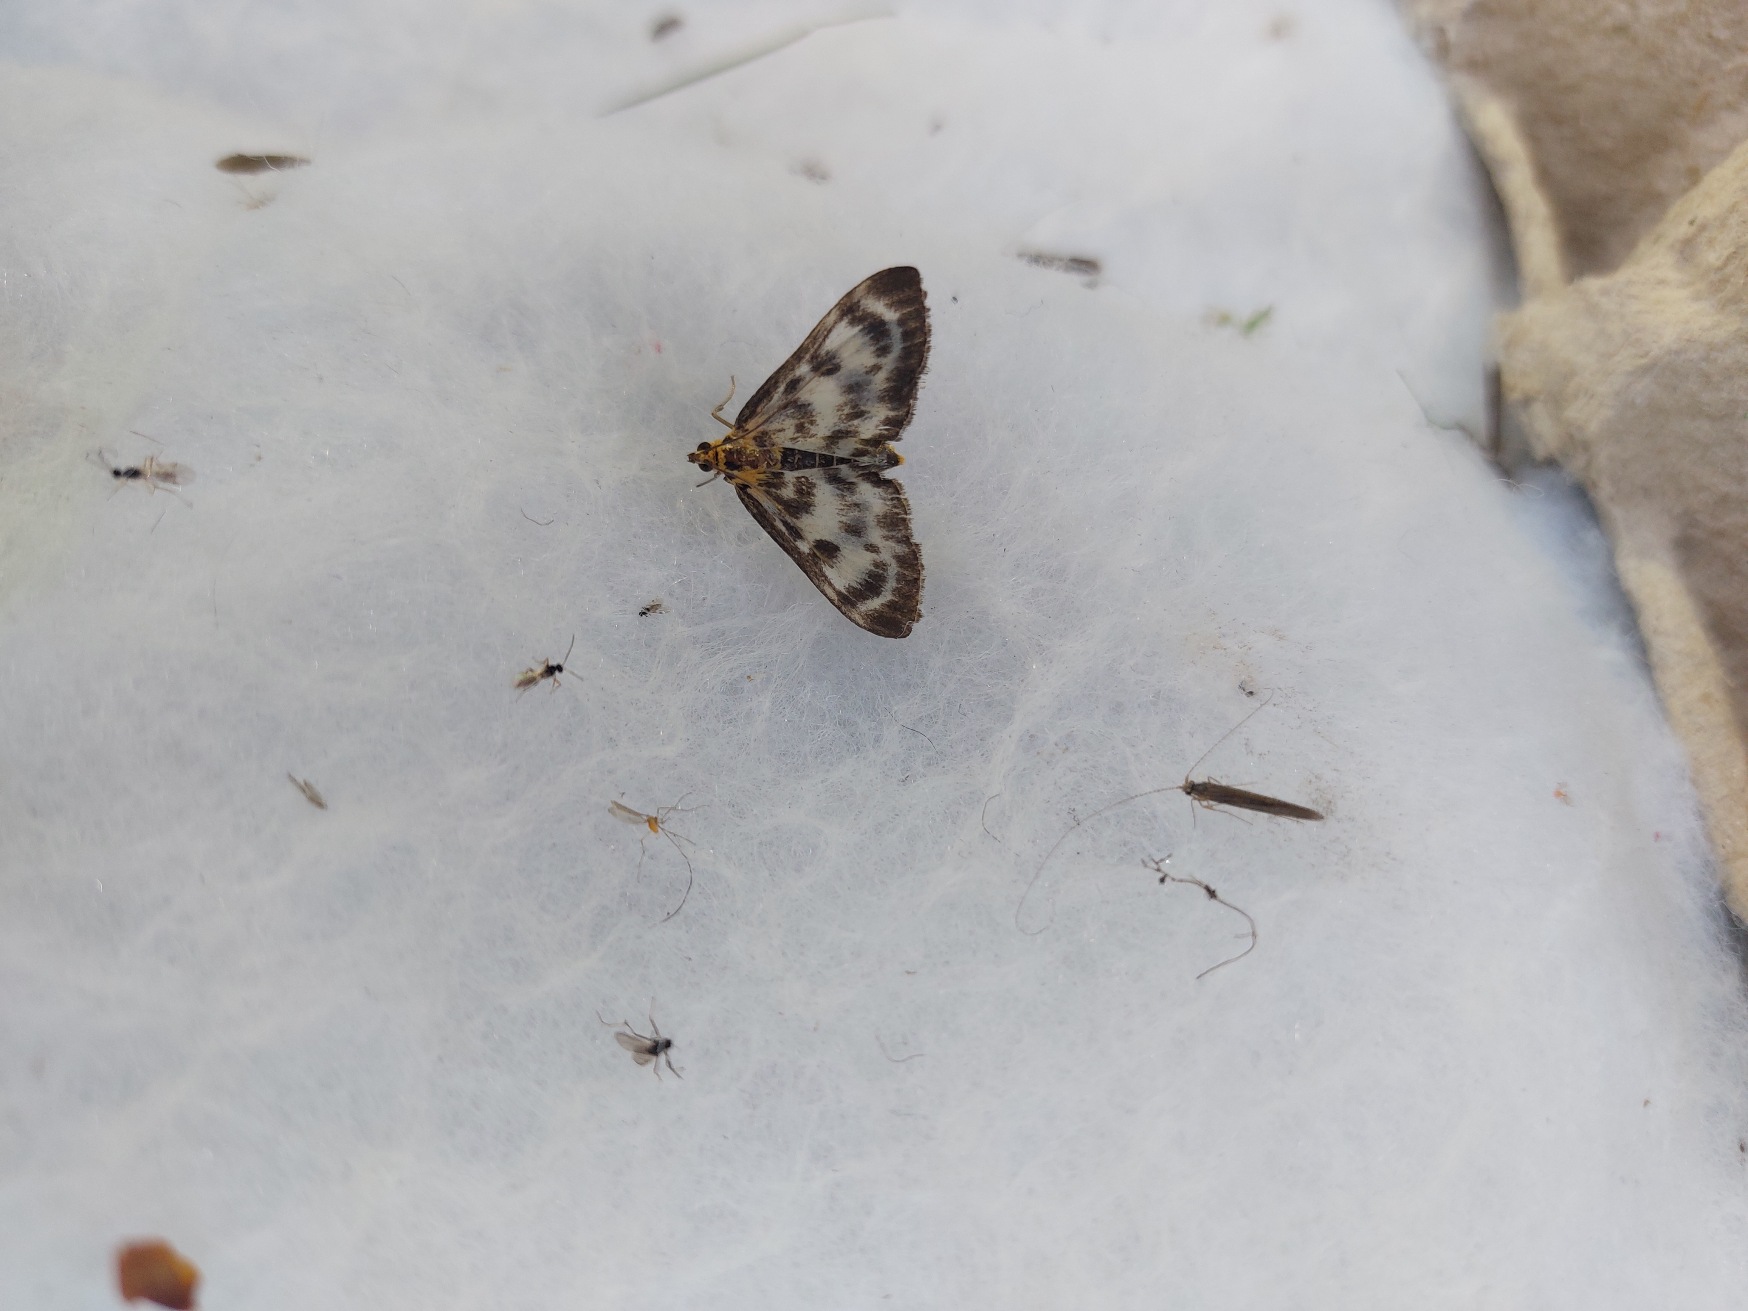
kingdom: Animalia
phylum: Arthropoda
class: Insecta
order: Lepidoptera
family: Crambidae
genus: Anania
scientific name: Anania hortulata
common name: Nældehalvmøl
